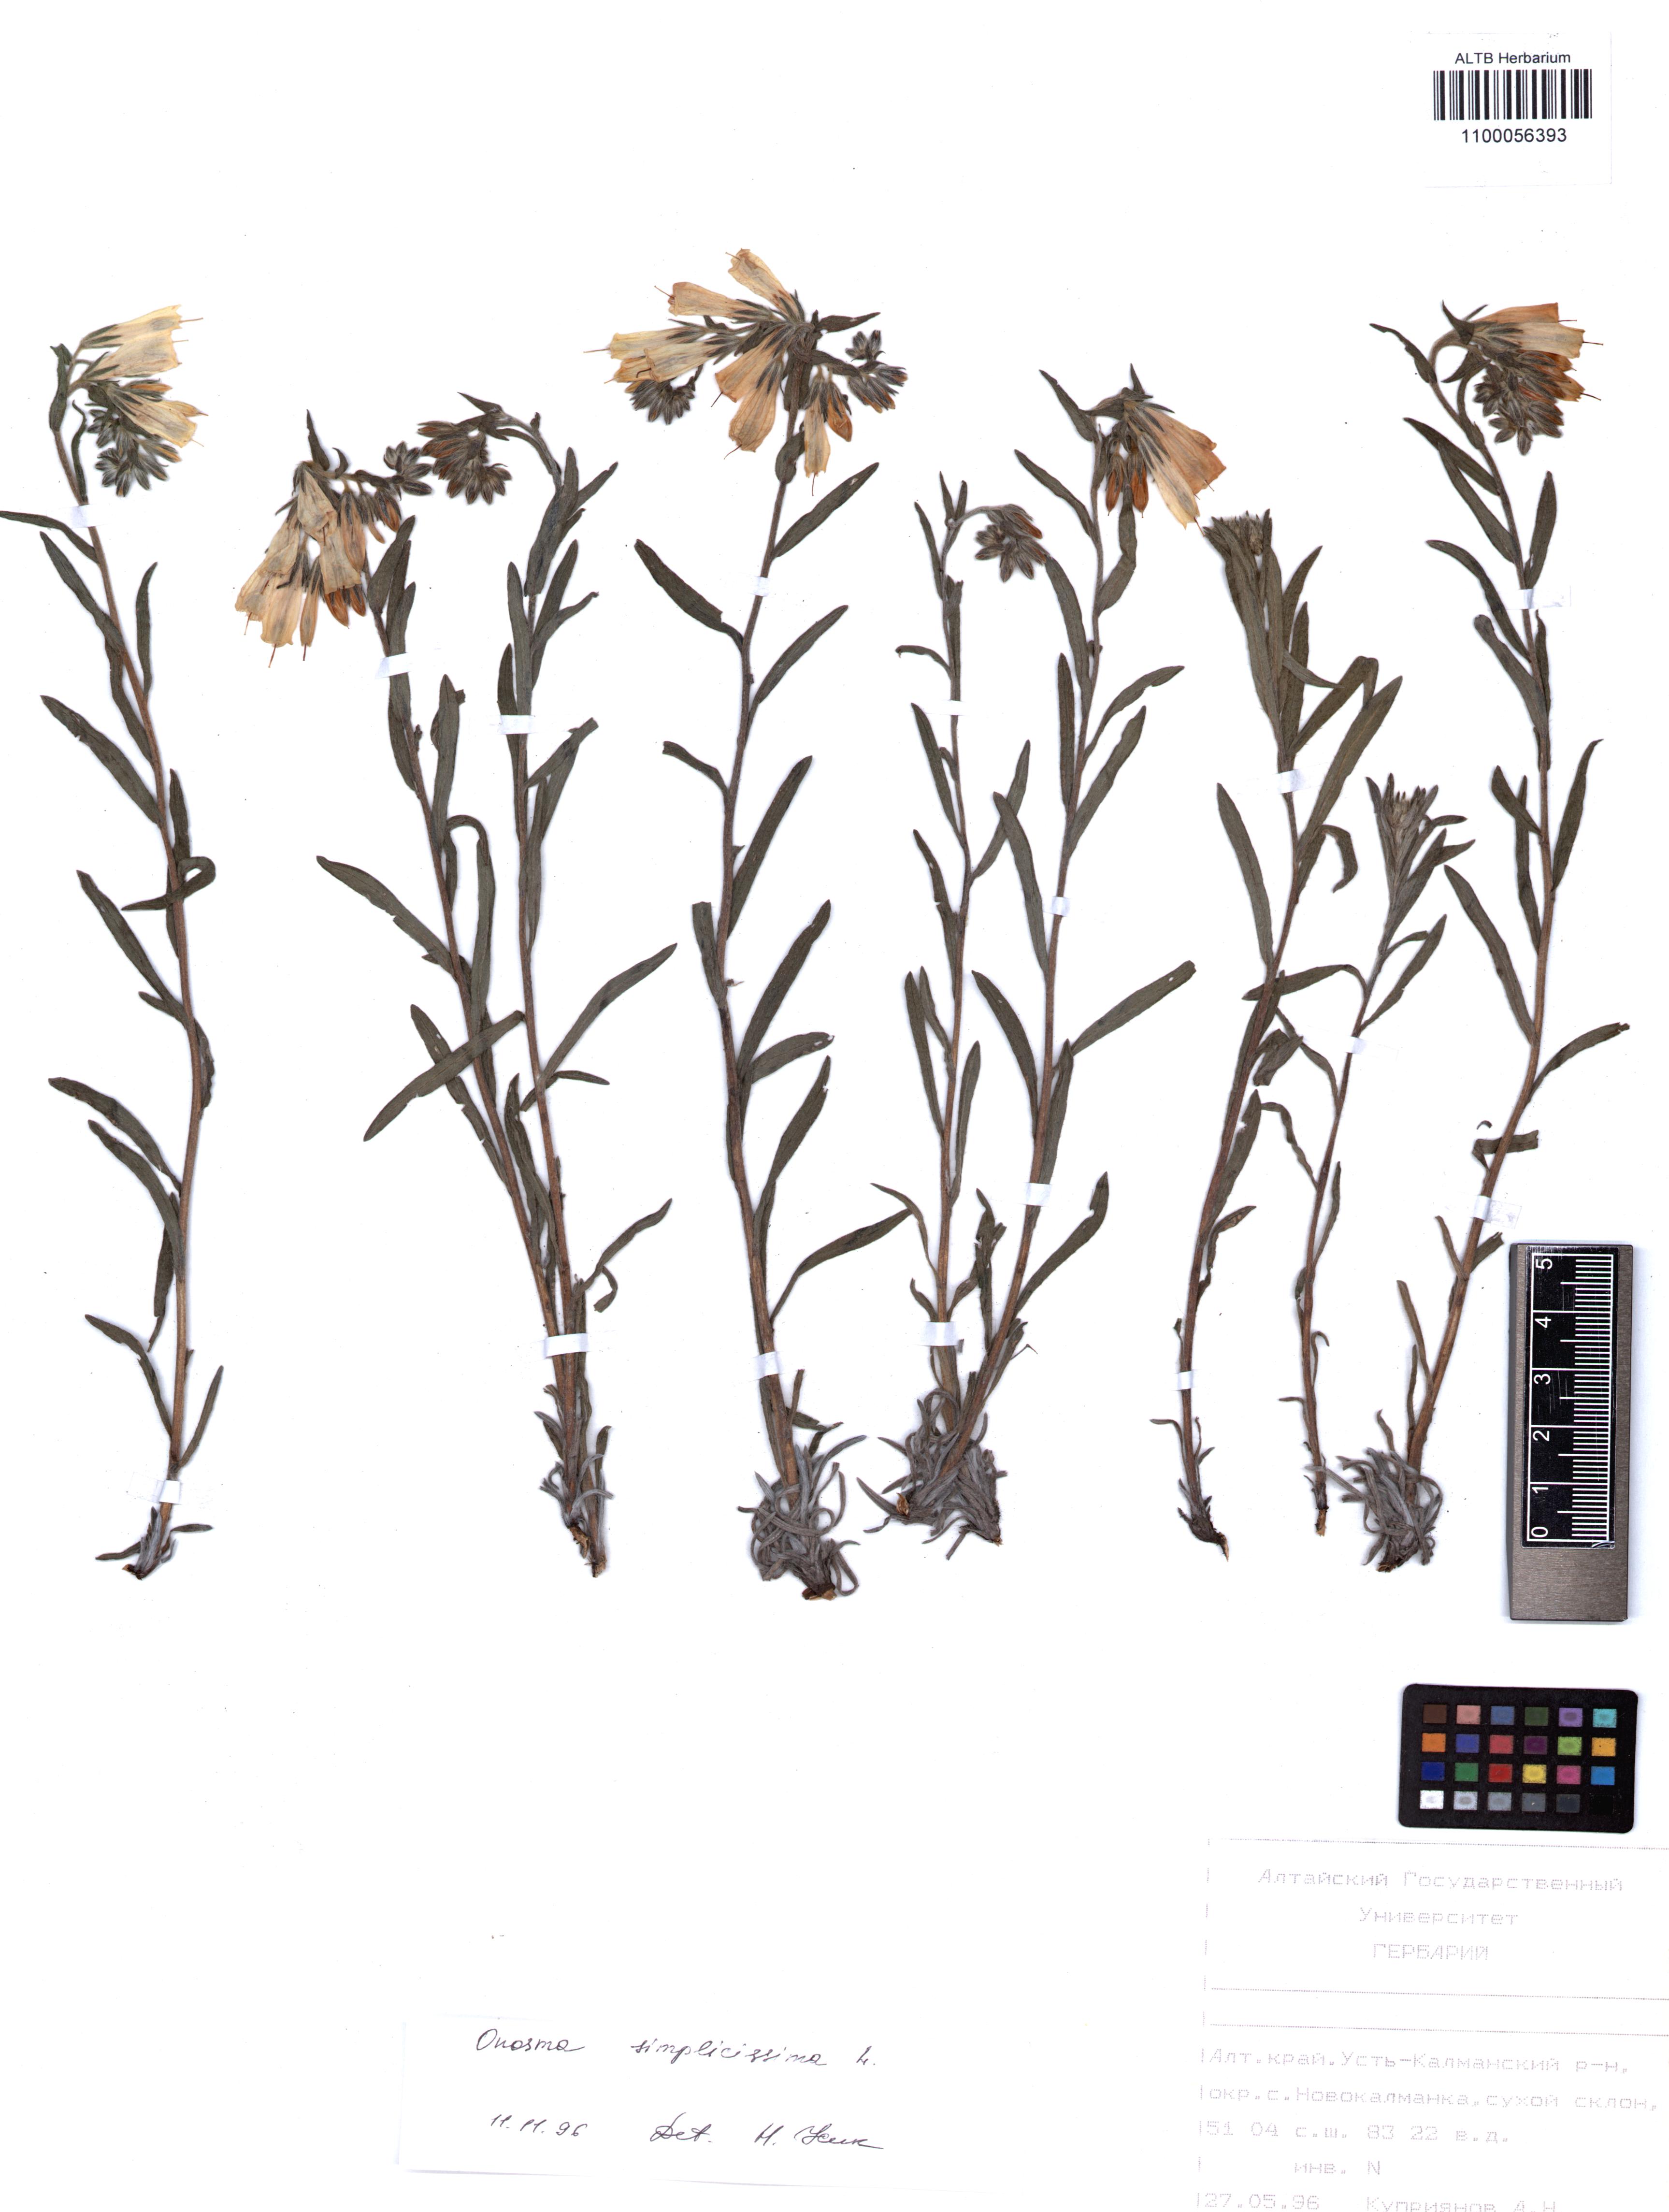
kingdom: Plantae
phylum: Tracheophyta
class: Magnoliopsida
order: Boraginales
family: Boraginaceae
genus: Onosma
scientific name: Onosma simplicissima
